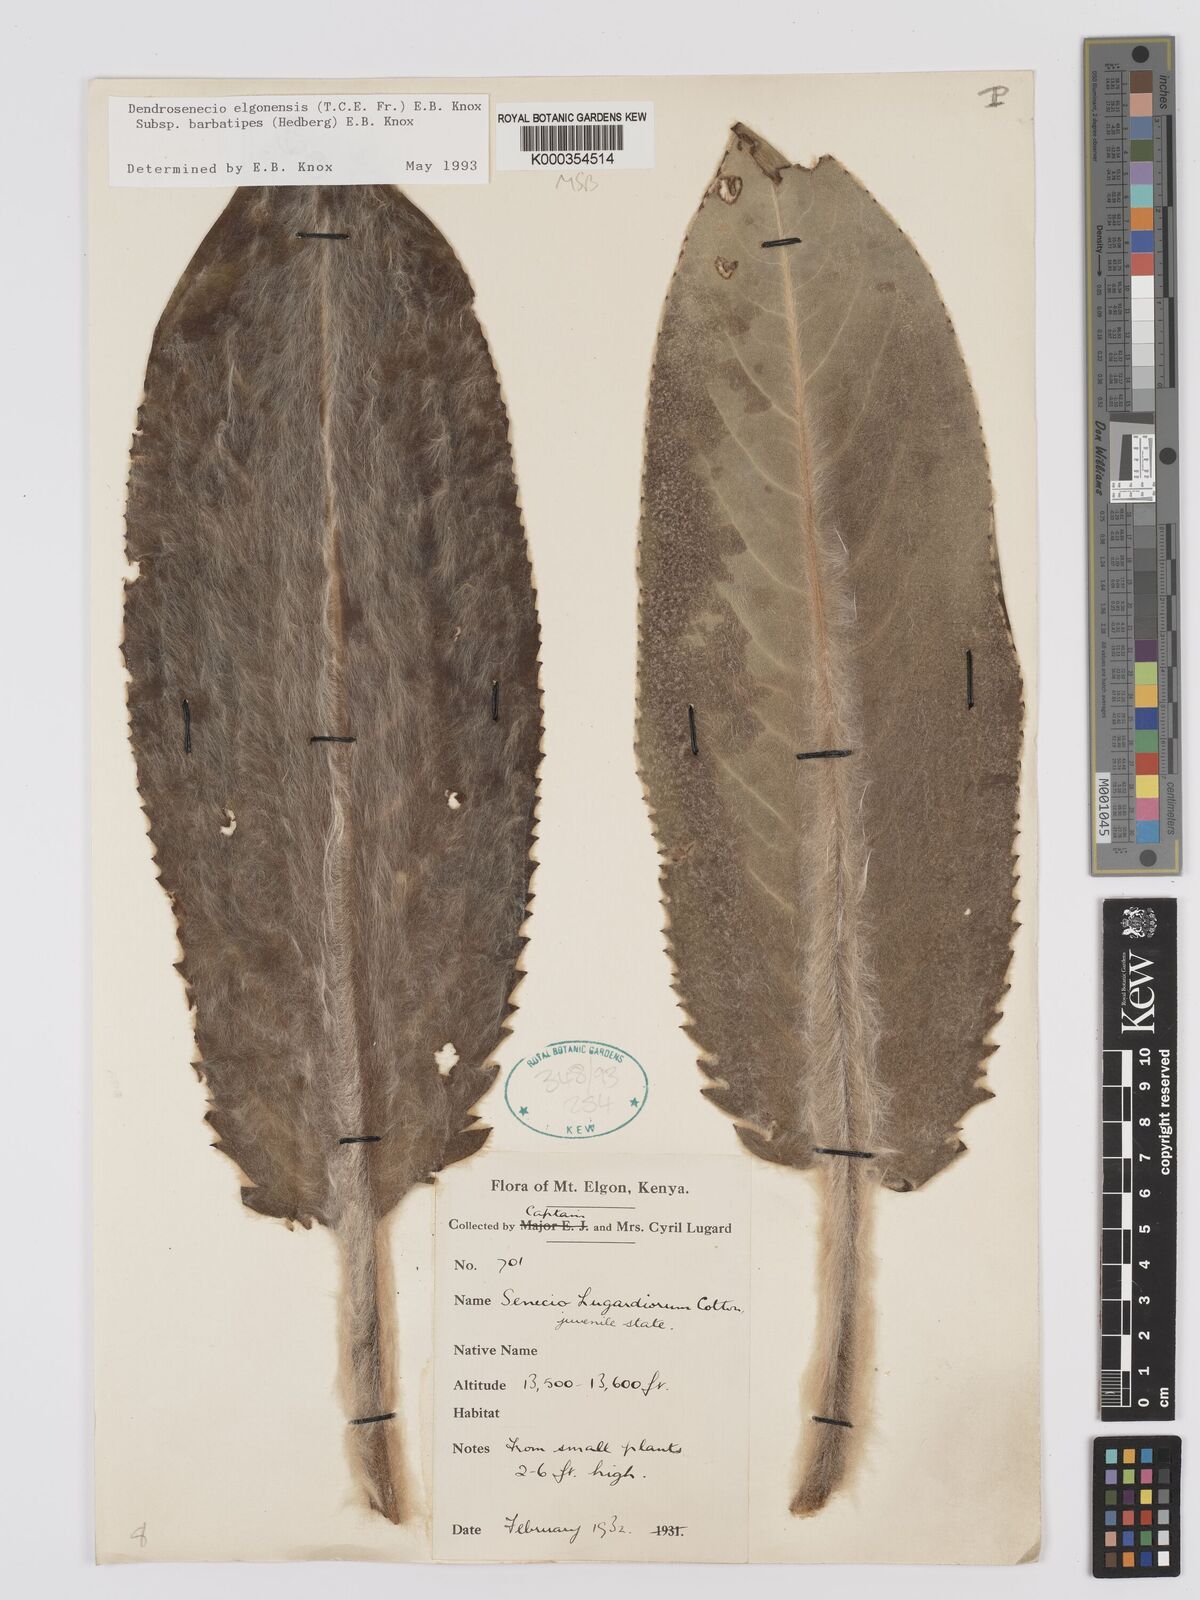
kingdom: Plantae
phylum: Tracheophyta
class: Magnoliopsida
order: Asterales
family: Asteraceae
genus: Dendrosenecio
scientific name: Dendrosenecio elgonensis
